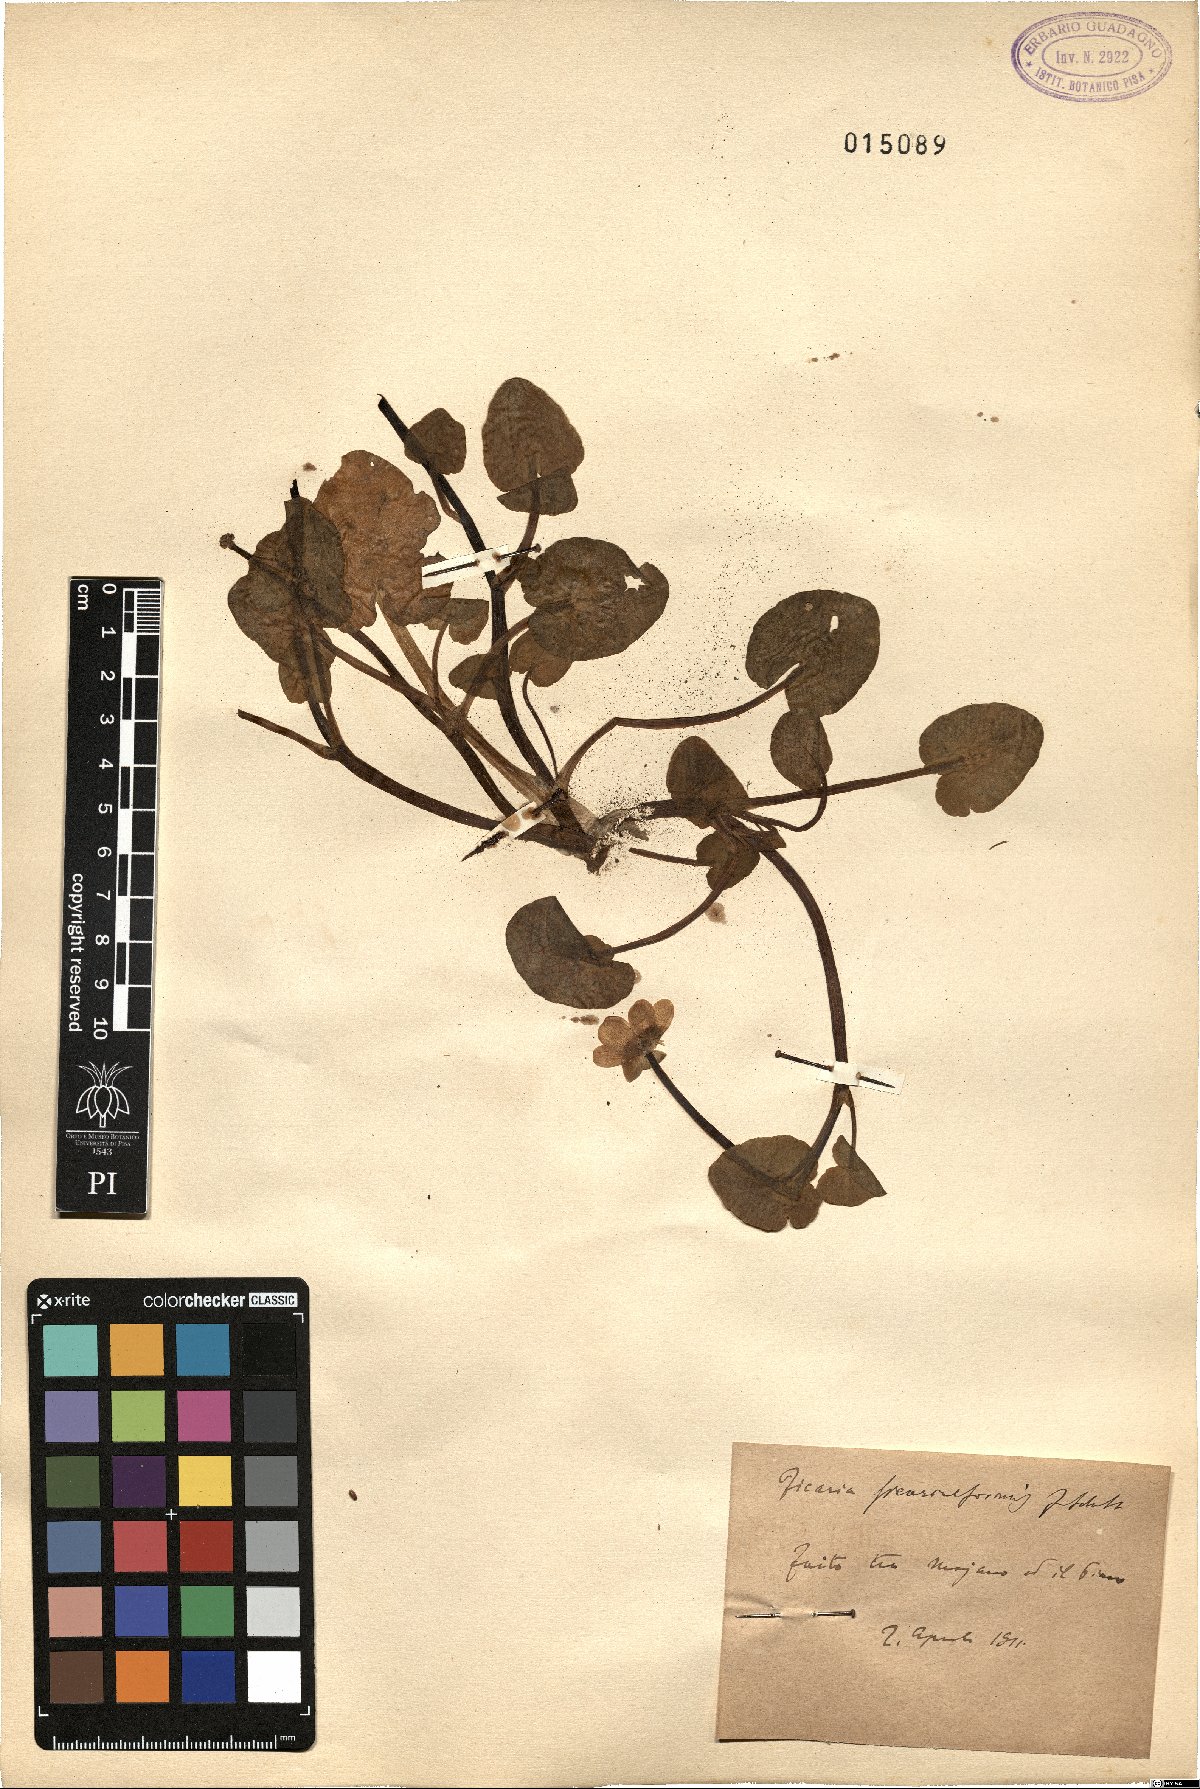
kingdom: Plantae
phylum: Tracheophyta
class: Magnoliopsida
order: Ranunculales
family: Ranunculaceae
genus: Ficaria
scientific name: Ficaria grandiflora
